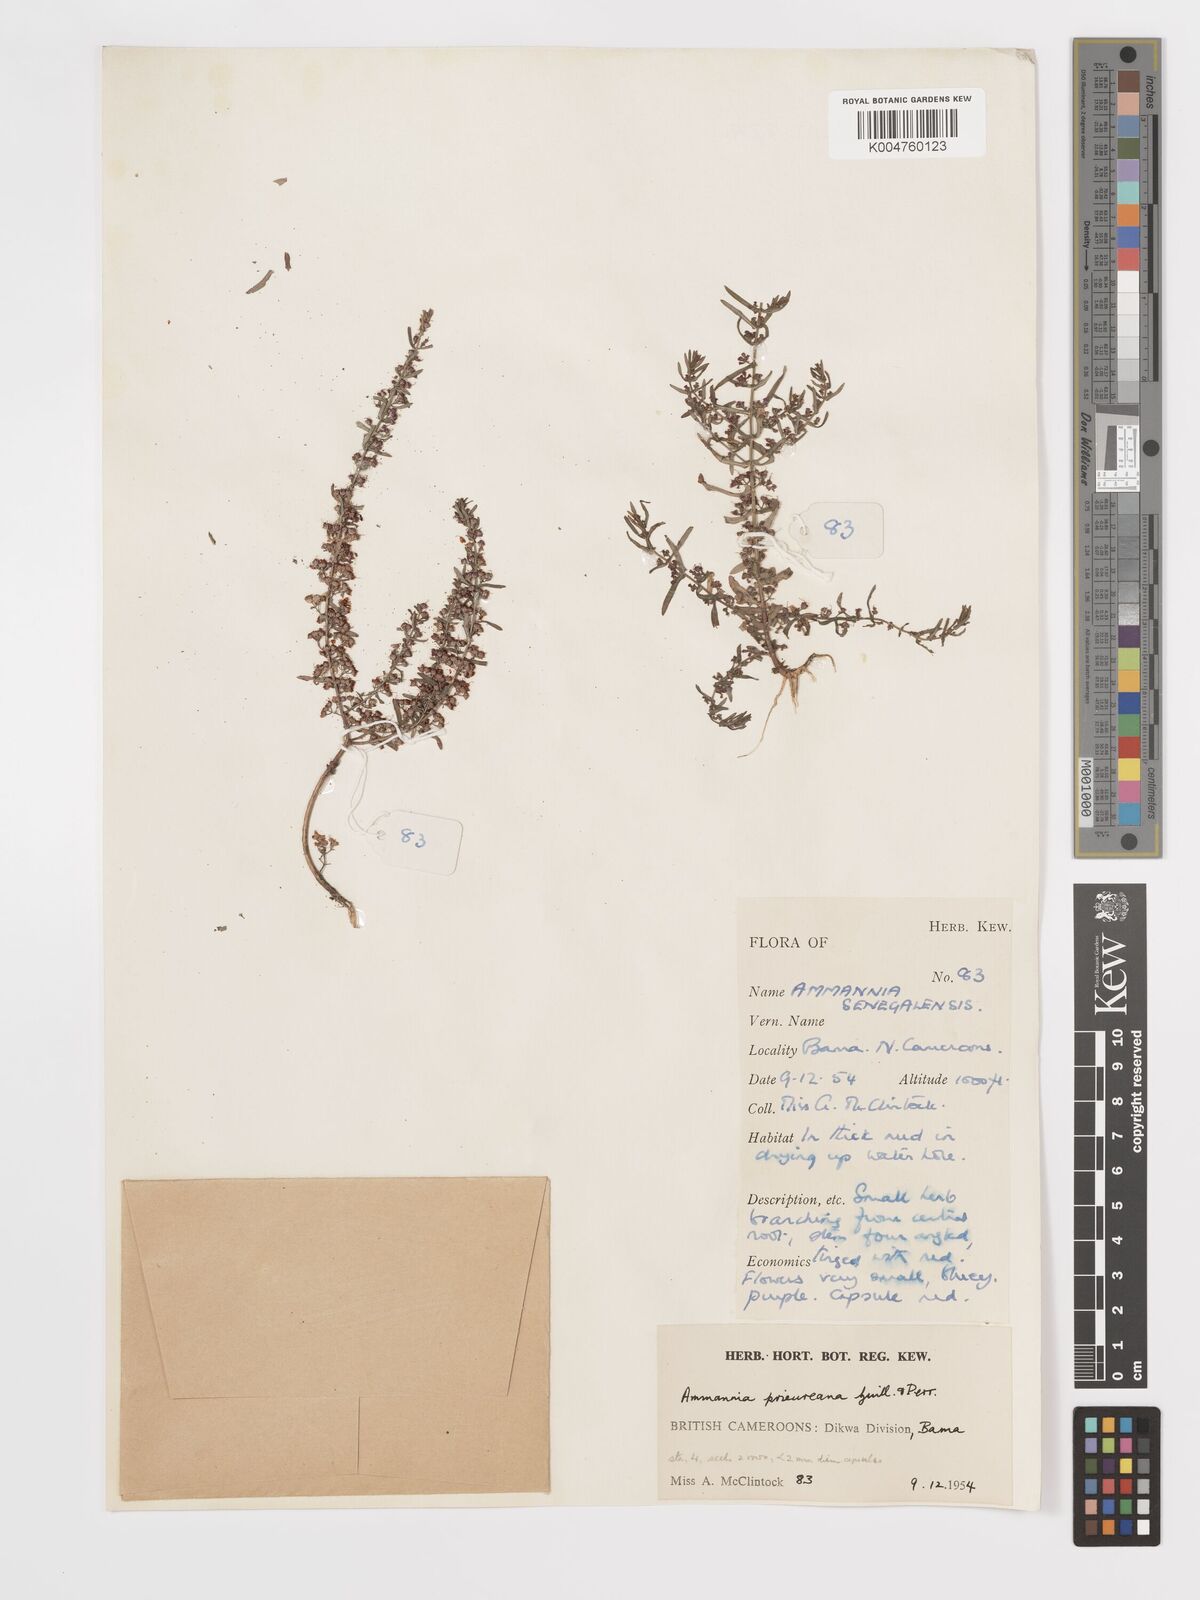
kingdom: Plantae
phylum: Tracheophyta
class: Magnoliopsida
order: Myrtales
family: Lythraceae
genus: Ammannia
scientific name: Ammannia prieuriana
